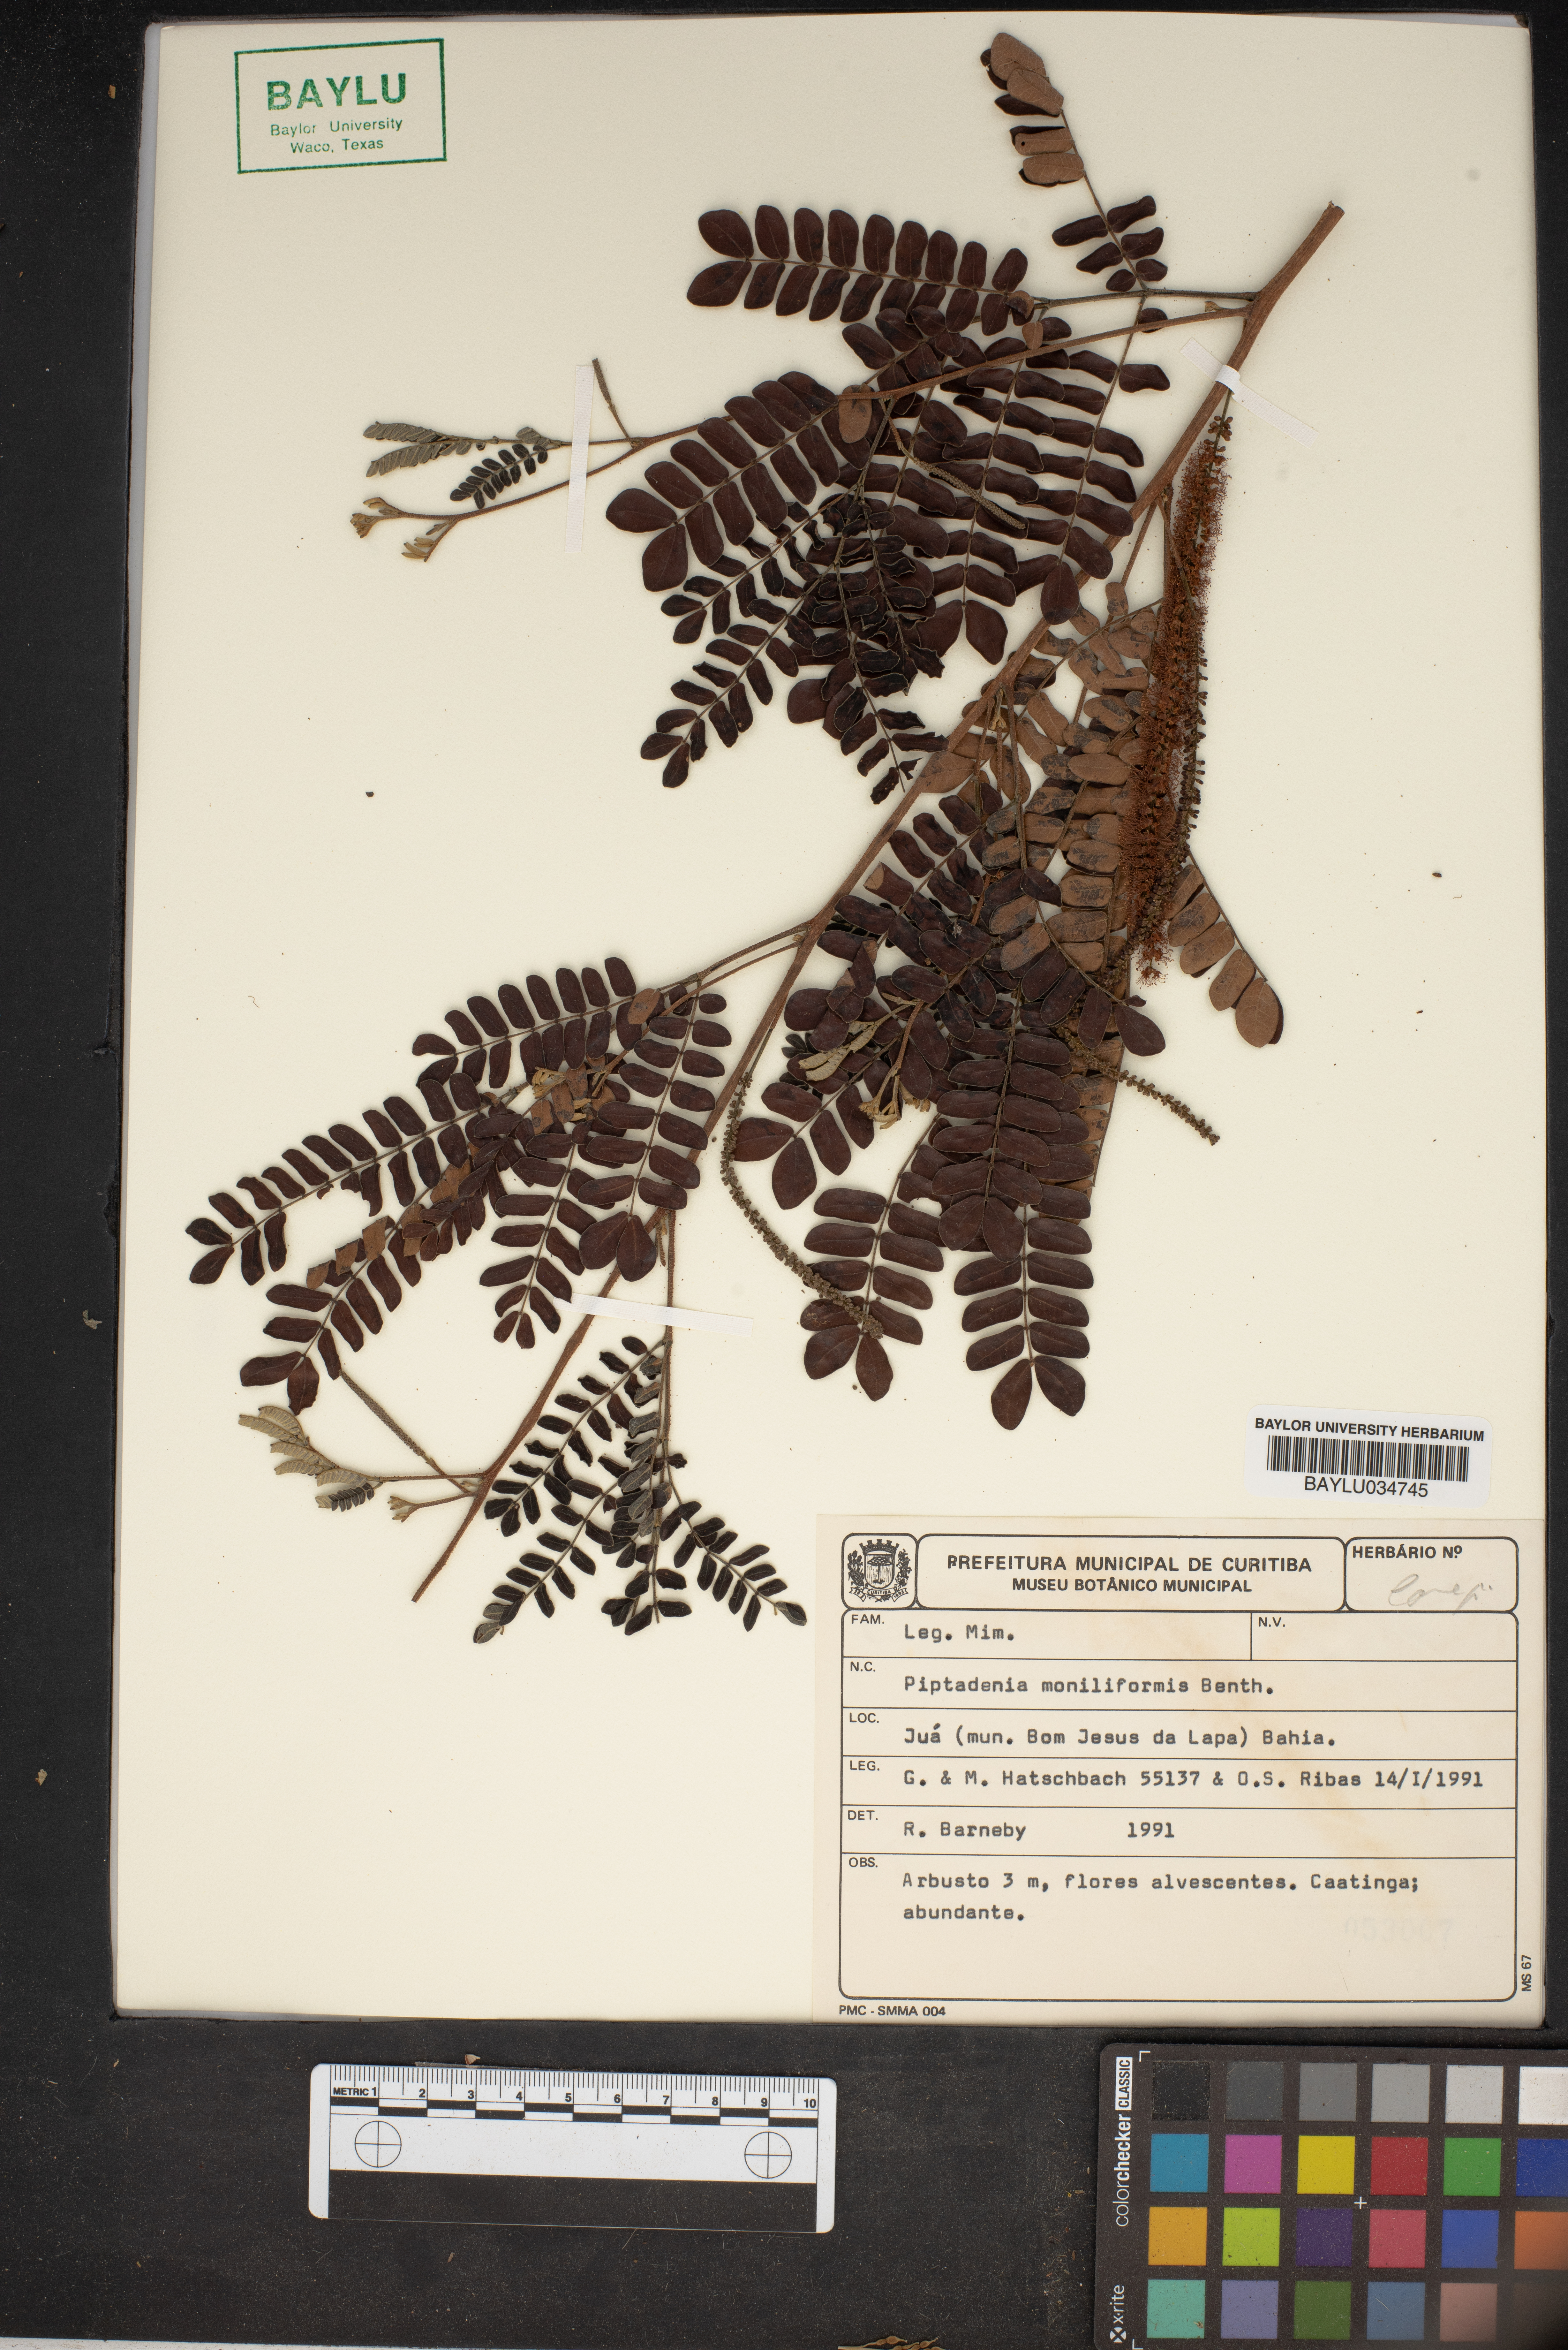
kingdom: Plantae
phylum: Tracheophyta
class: Magnoliopsida
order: Fabales
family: Fabaceae
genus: Pityrocarpa
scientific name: Pityrocarpa moniliformis
